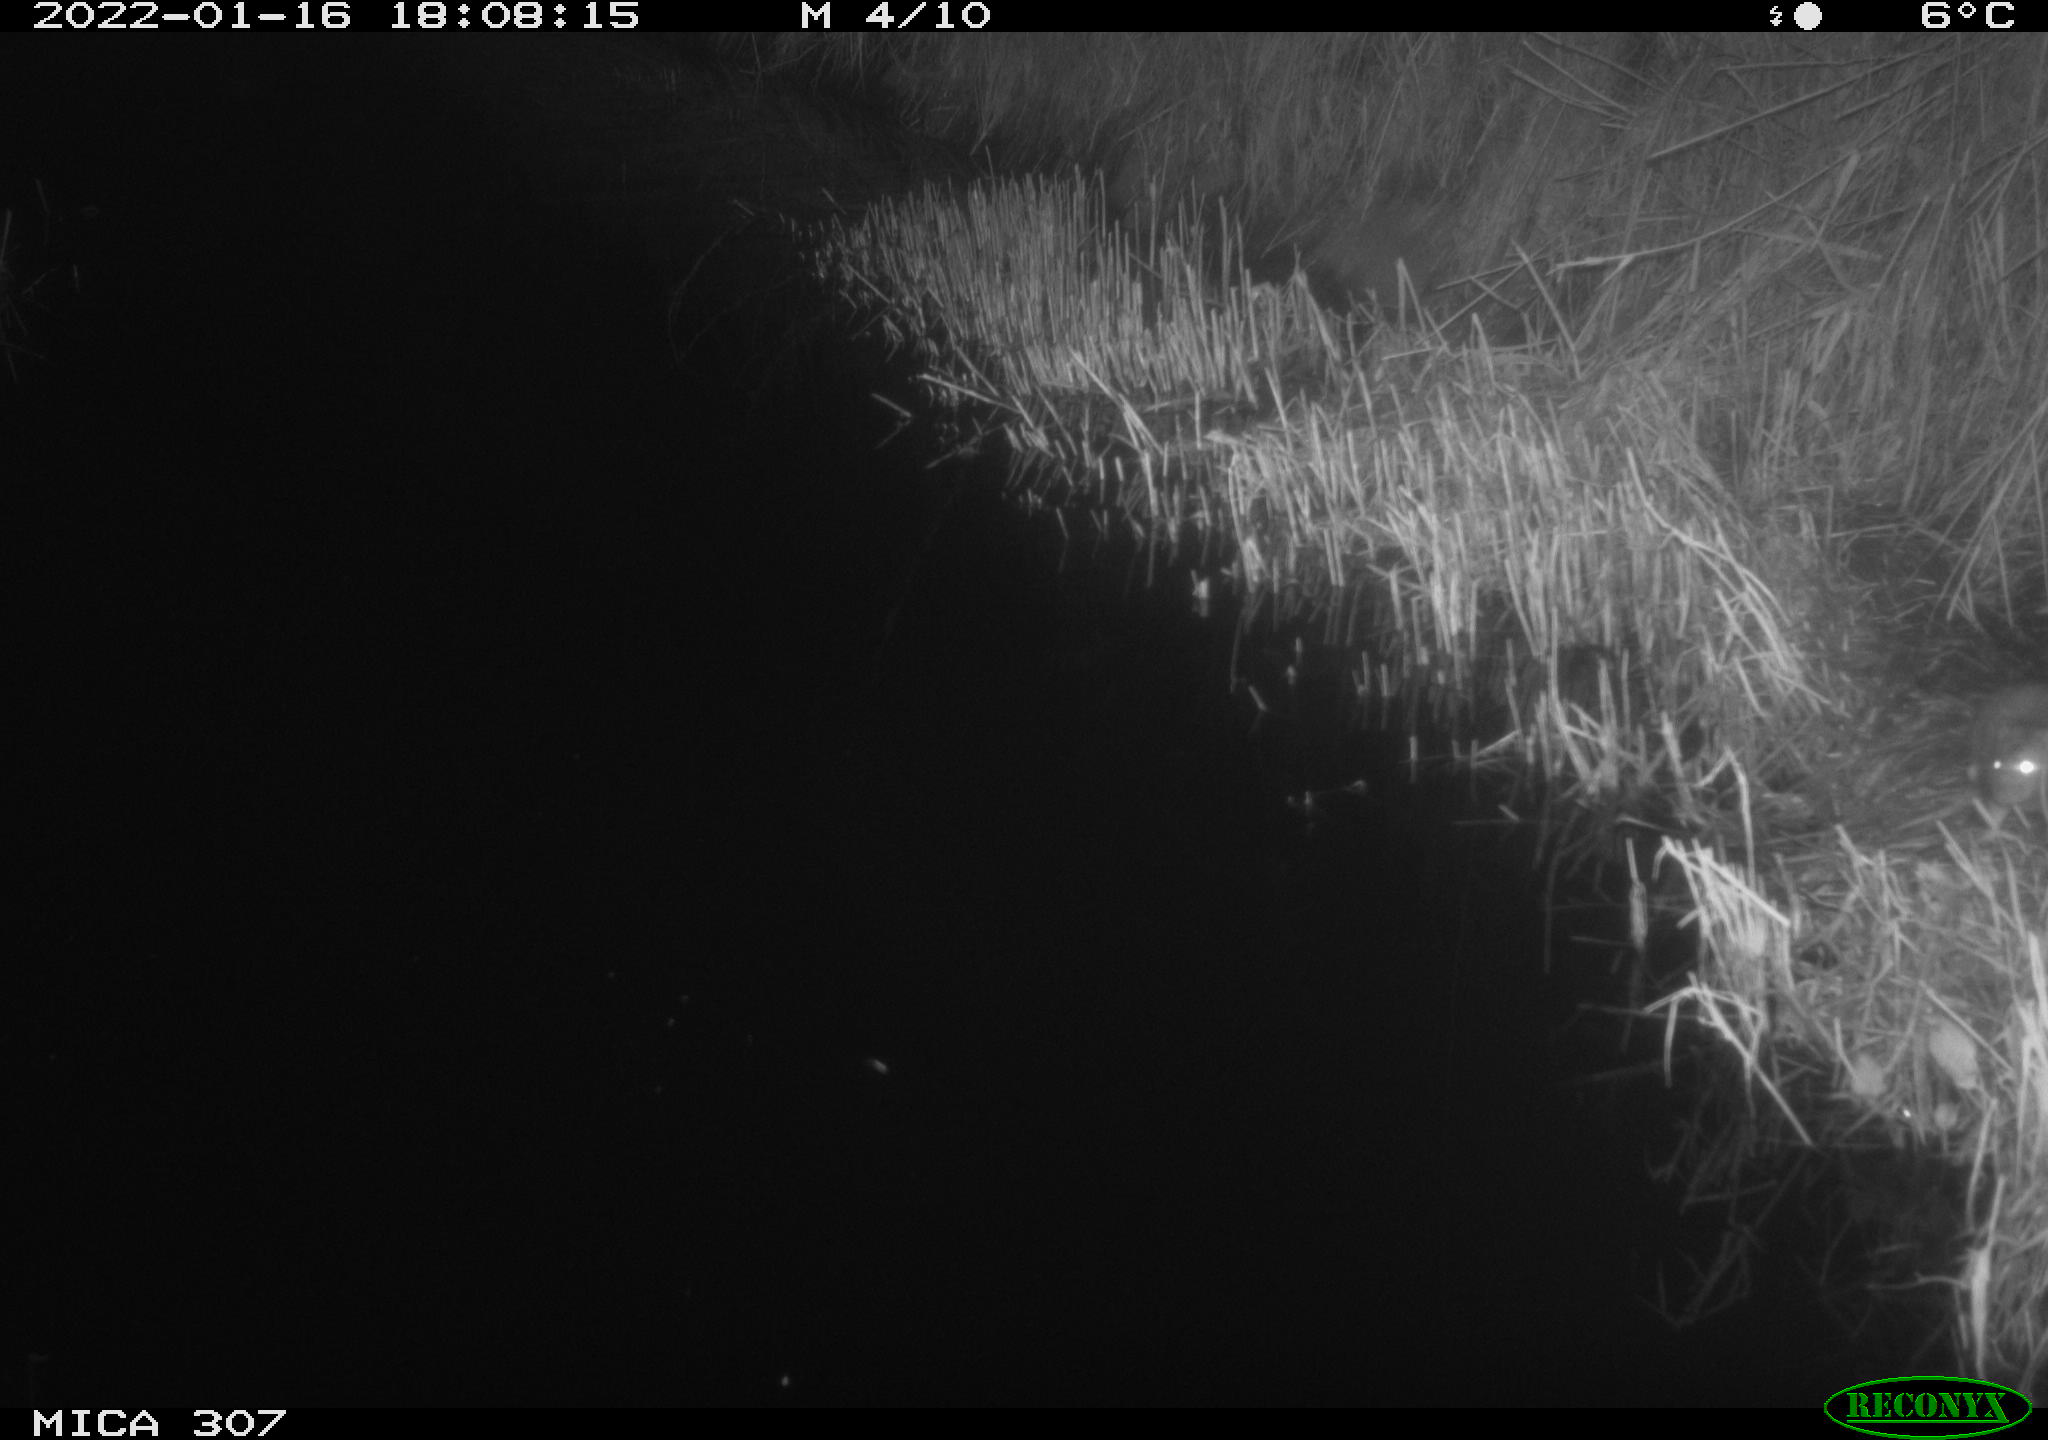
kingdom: Animalia
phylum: Chordata
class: Mammalia
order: Rodentia
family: Muridae
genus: Rattus
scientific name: Rattus norvegicus
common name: Brown rat
